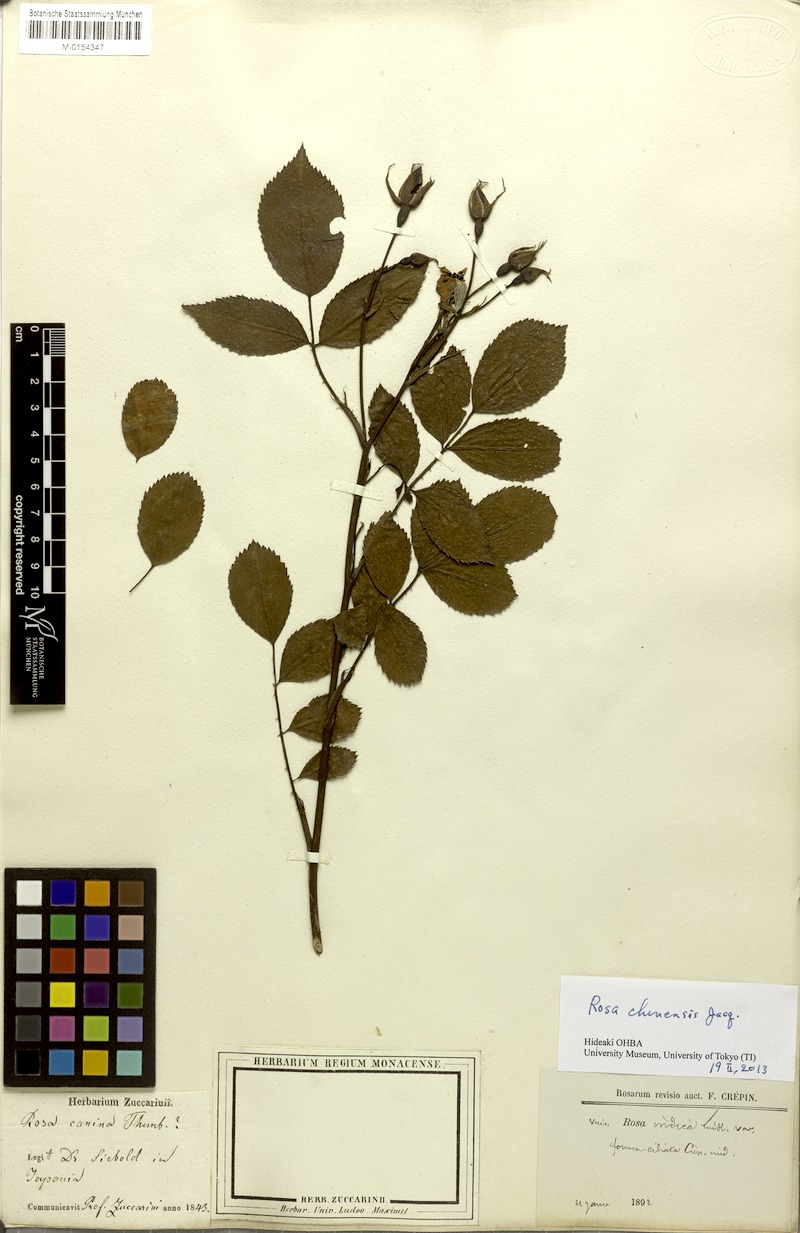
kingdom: Plantae
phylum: Tracheophyta
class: Magnoliopsida
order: Rosales
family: Rosaceae
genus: Rosa
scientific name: Rosa chinensis
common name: China rose
